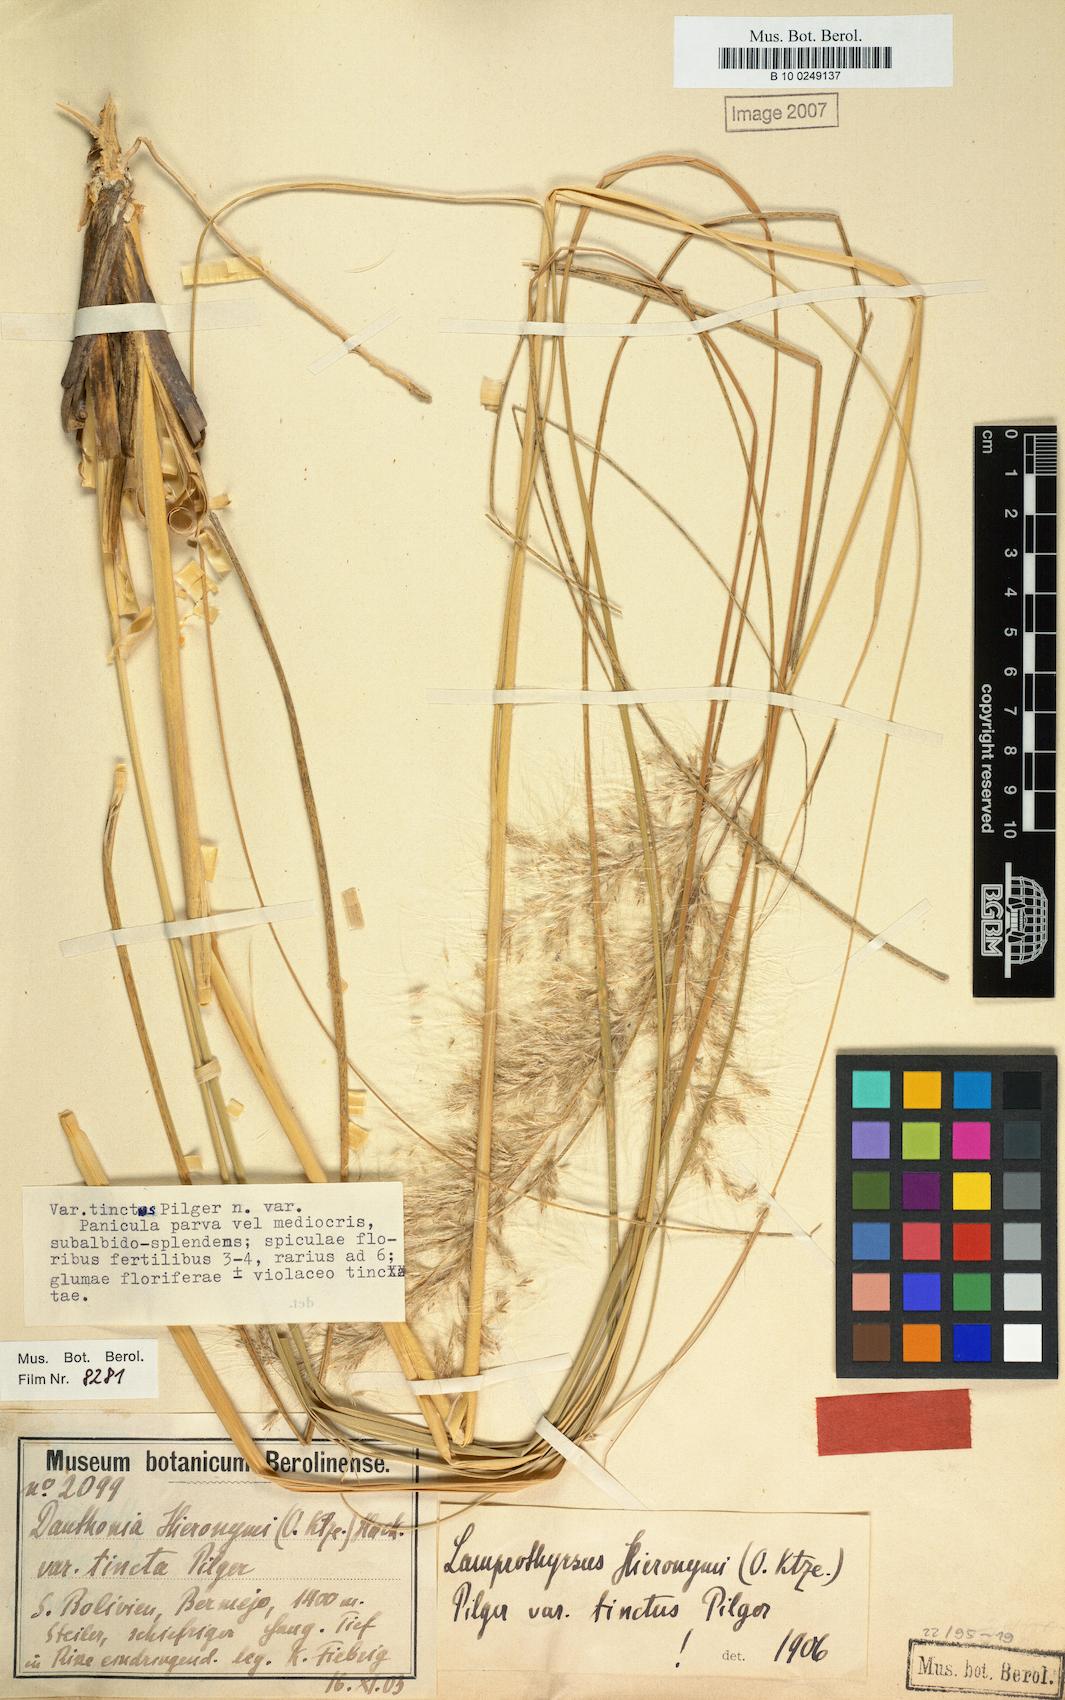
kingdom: Plantae
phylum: Tracheophyta
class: Liliopsida
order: Poales
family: Poaceae
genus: Cortaderia
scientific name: Cortaderia hieronymi
